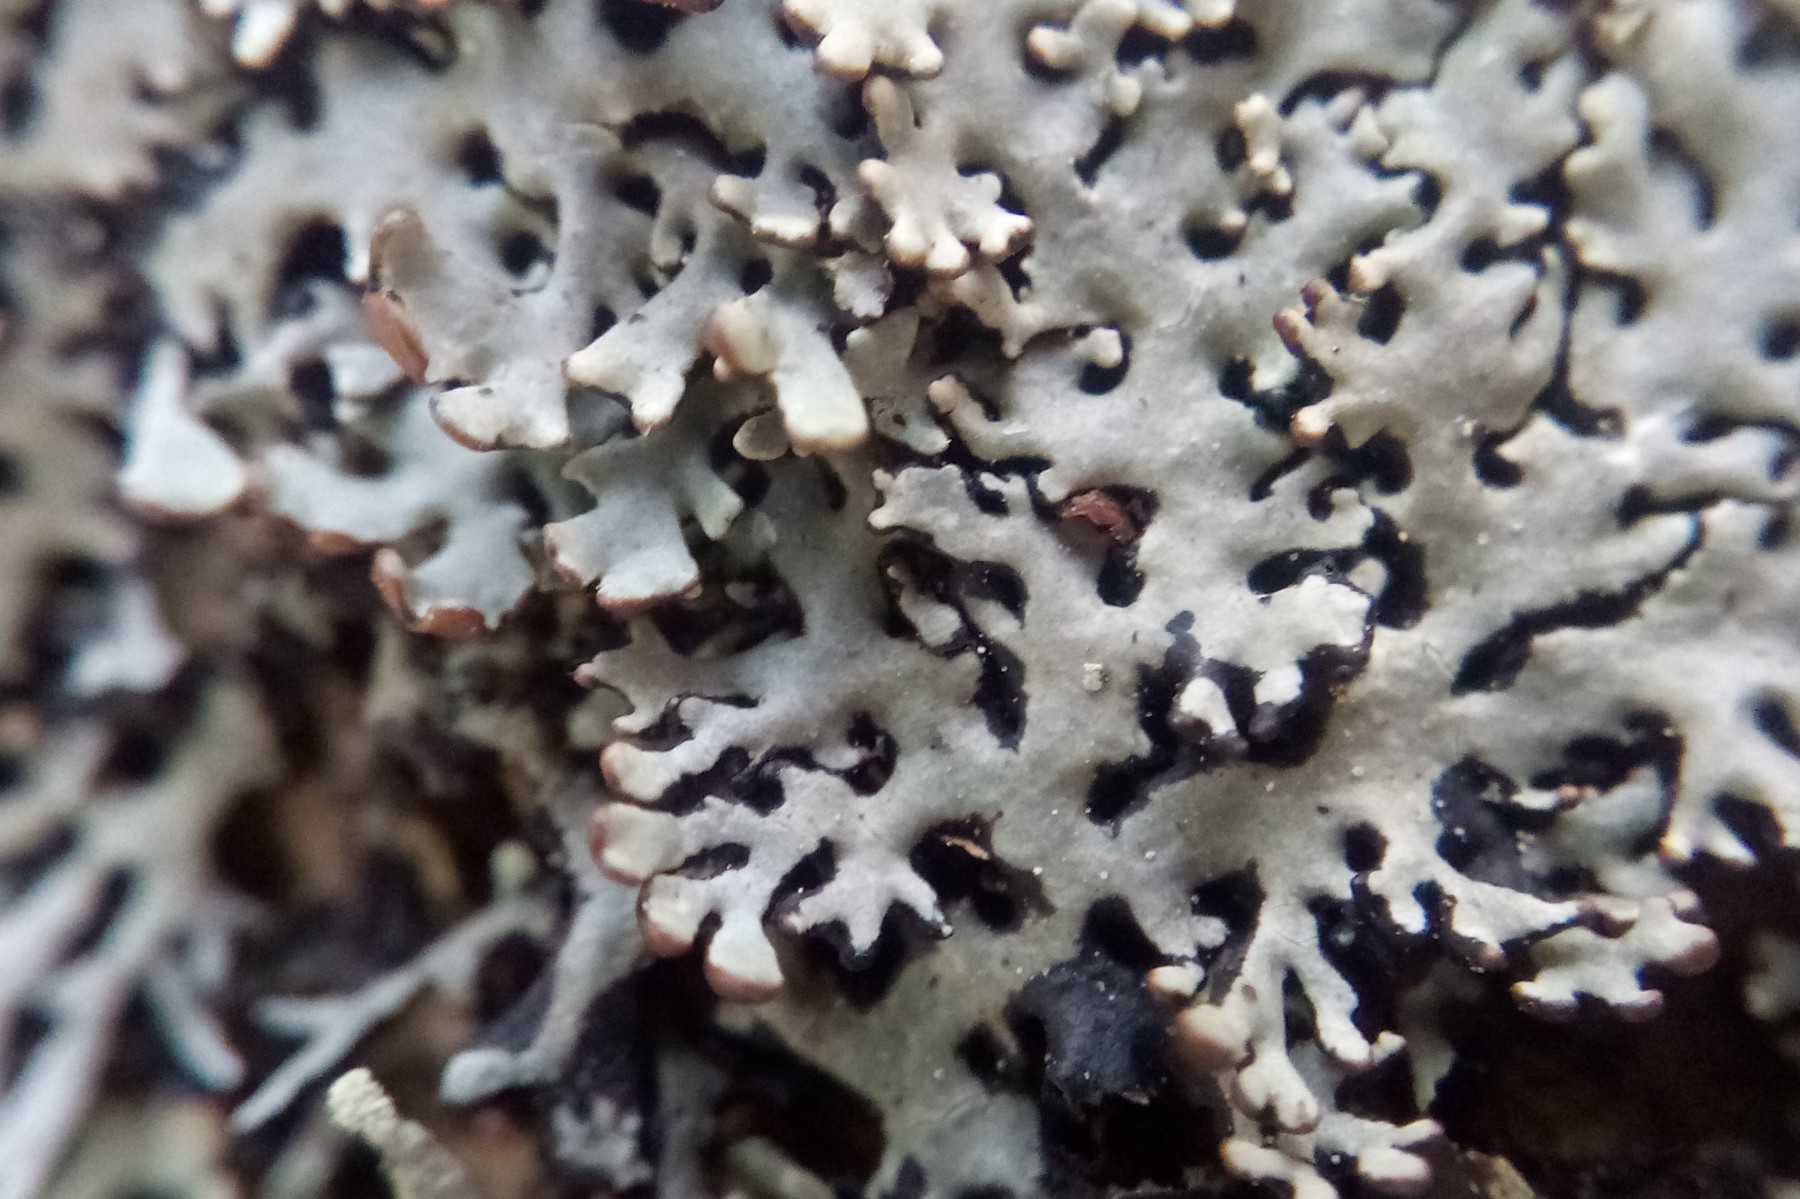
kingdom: Fungi
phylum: Ascomycota
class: Lecanoromycetes
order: Lecanorales
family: Parmeliaceae
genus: Hypogymnia
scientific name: Hypogymnia physodes
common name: almindelig kvistlav
